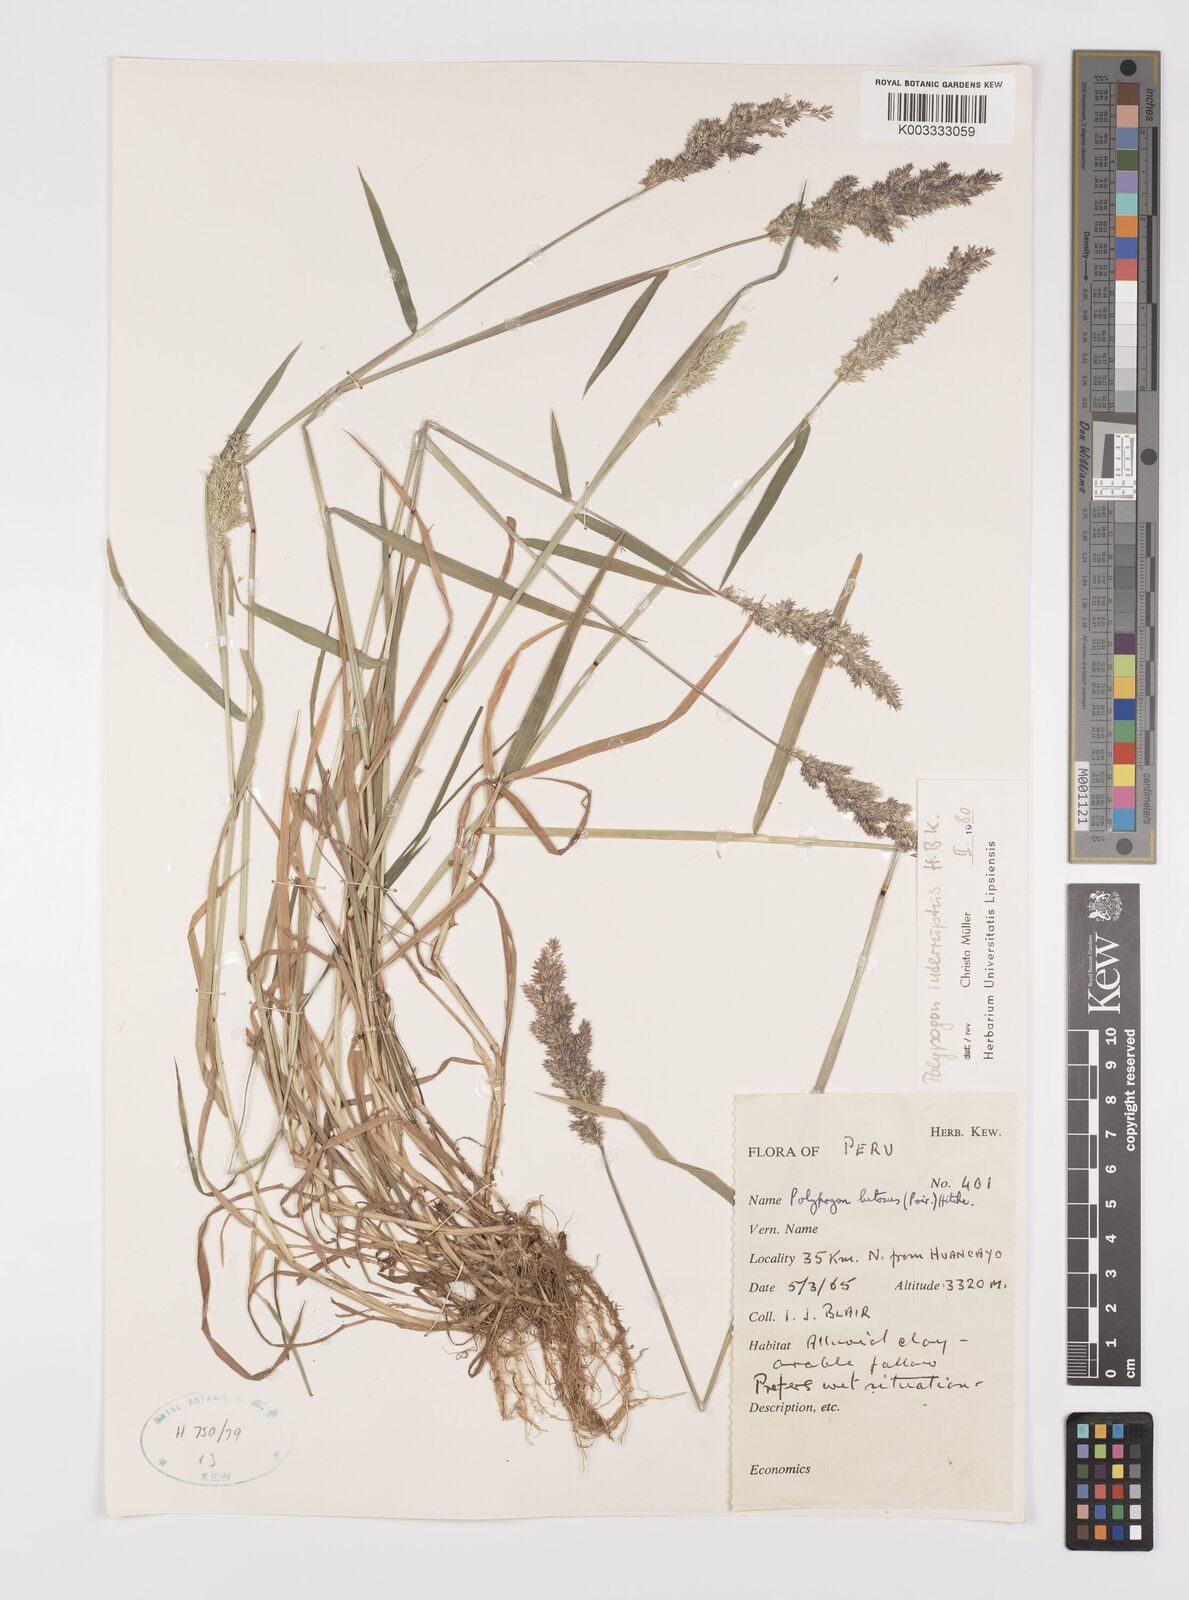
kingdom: Plantae
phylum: Tracheophyta
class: Liliopsida
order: Poales
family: Poaceae
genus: Polypogon
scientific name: Polypogon interruptus
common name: Ditch polypogon
